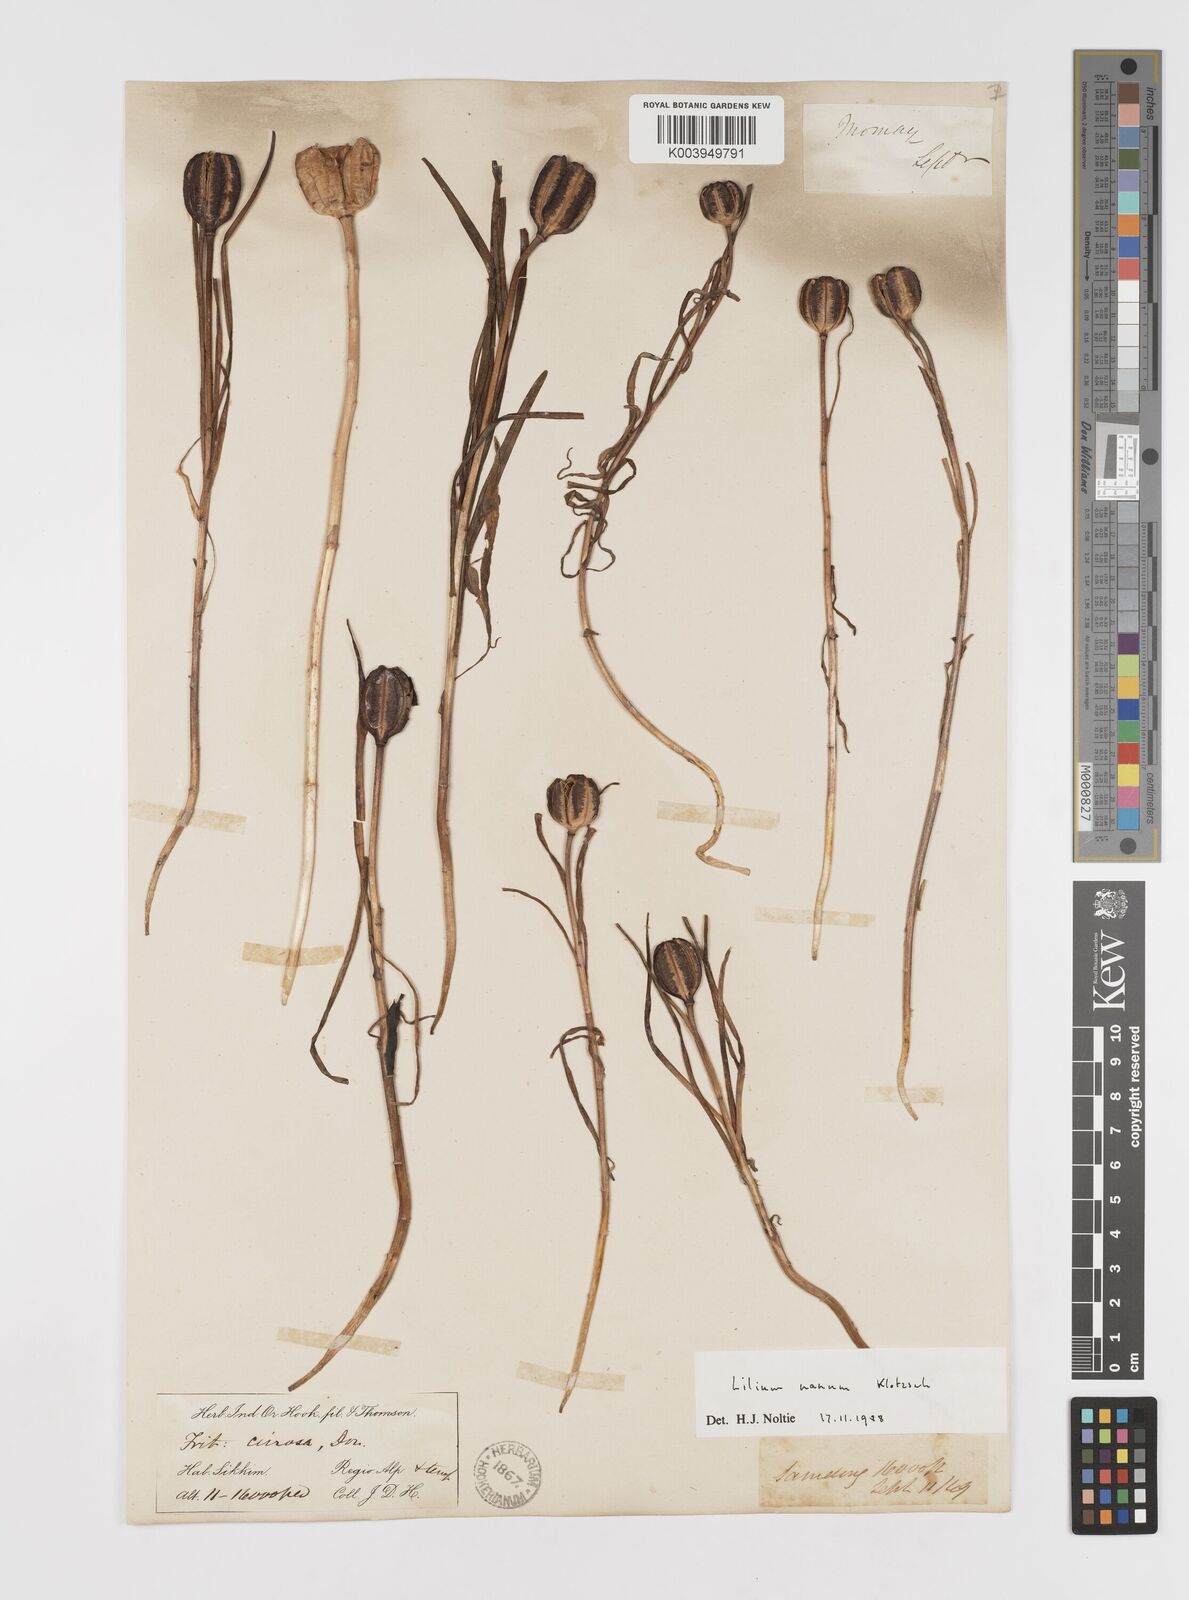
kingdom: Plantae
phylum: Tracheophyta
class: Liliopsida
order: Liliales
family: Liliaceae
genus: Lilium
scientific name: Lilium nanum
